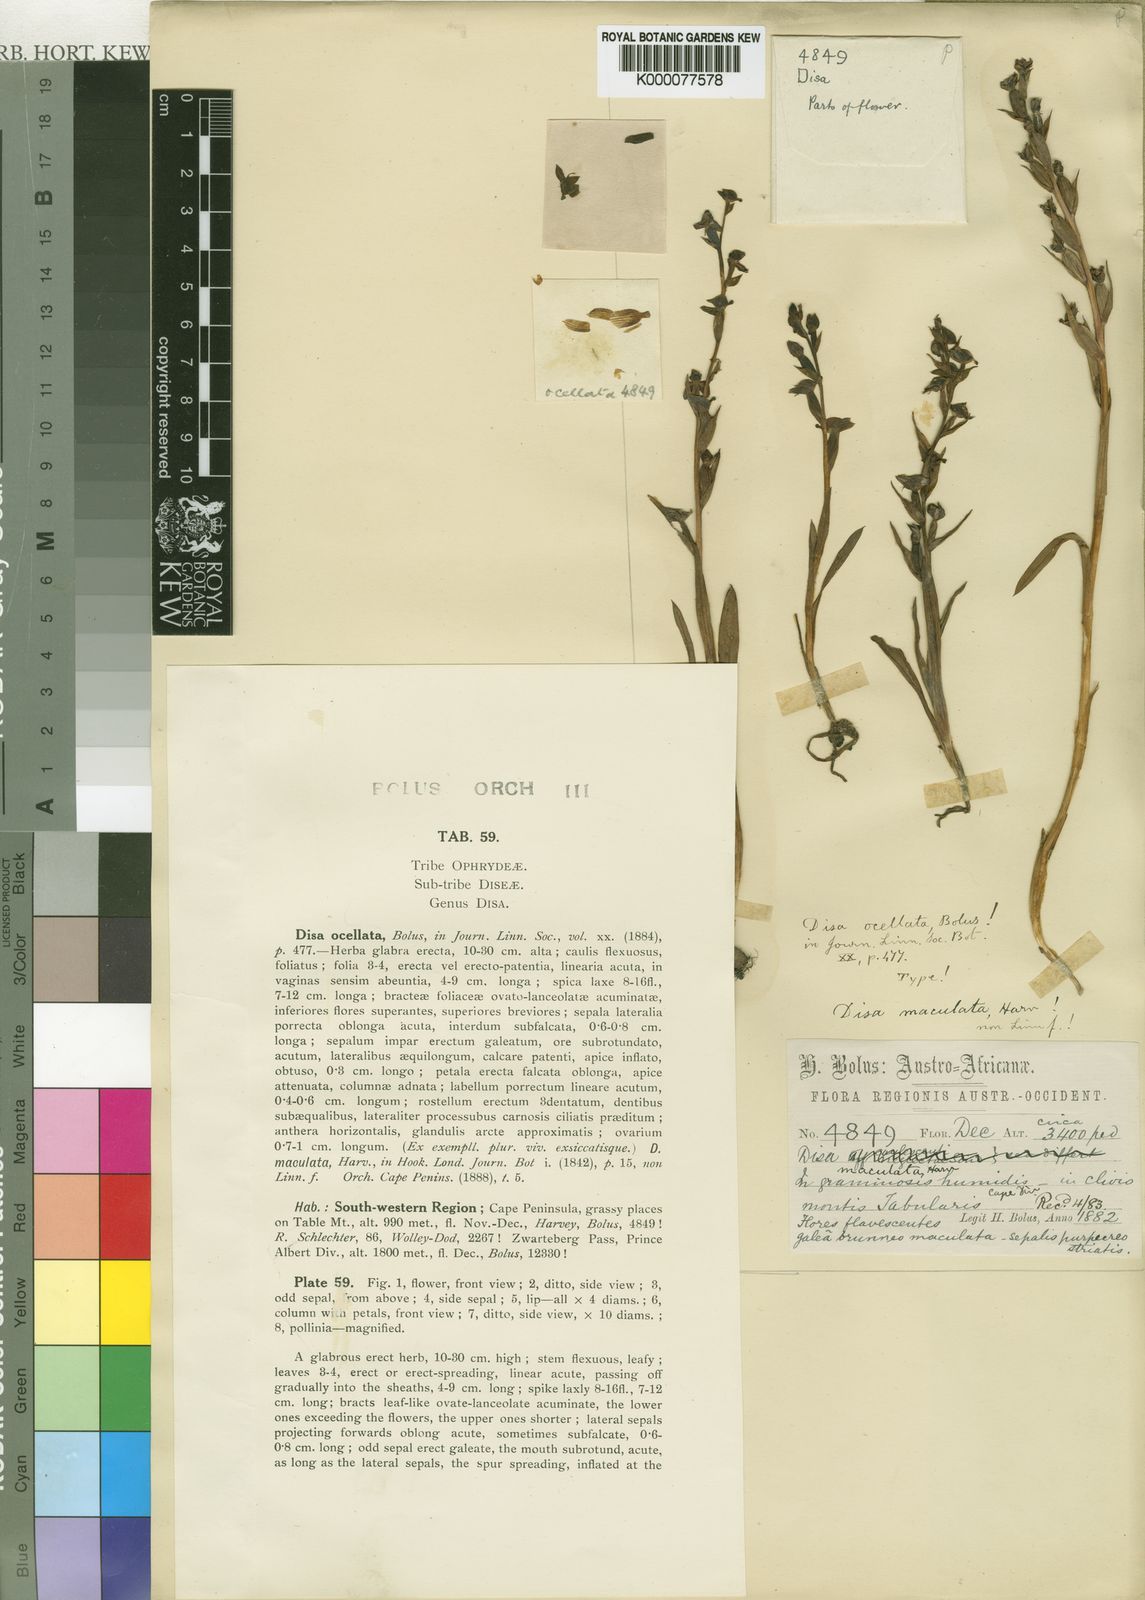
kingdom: Plantae
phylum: Tracheophyta
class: Liliopsida
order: Asparagales
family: Orchidaceae
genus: Disa
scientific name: Disa ocellata
